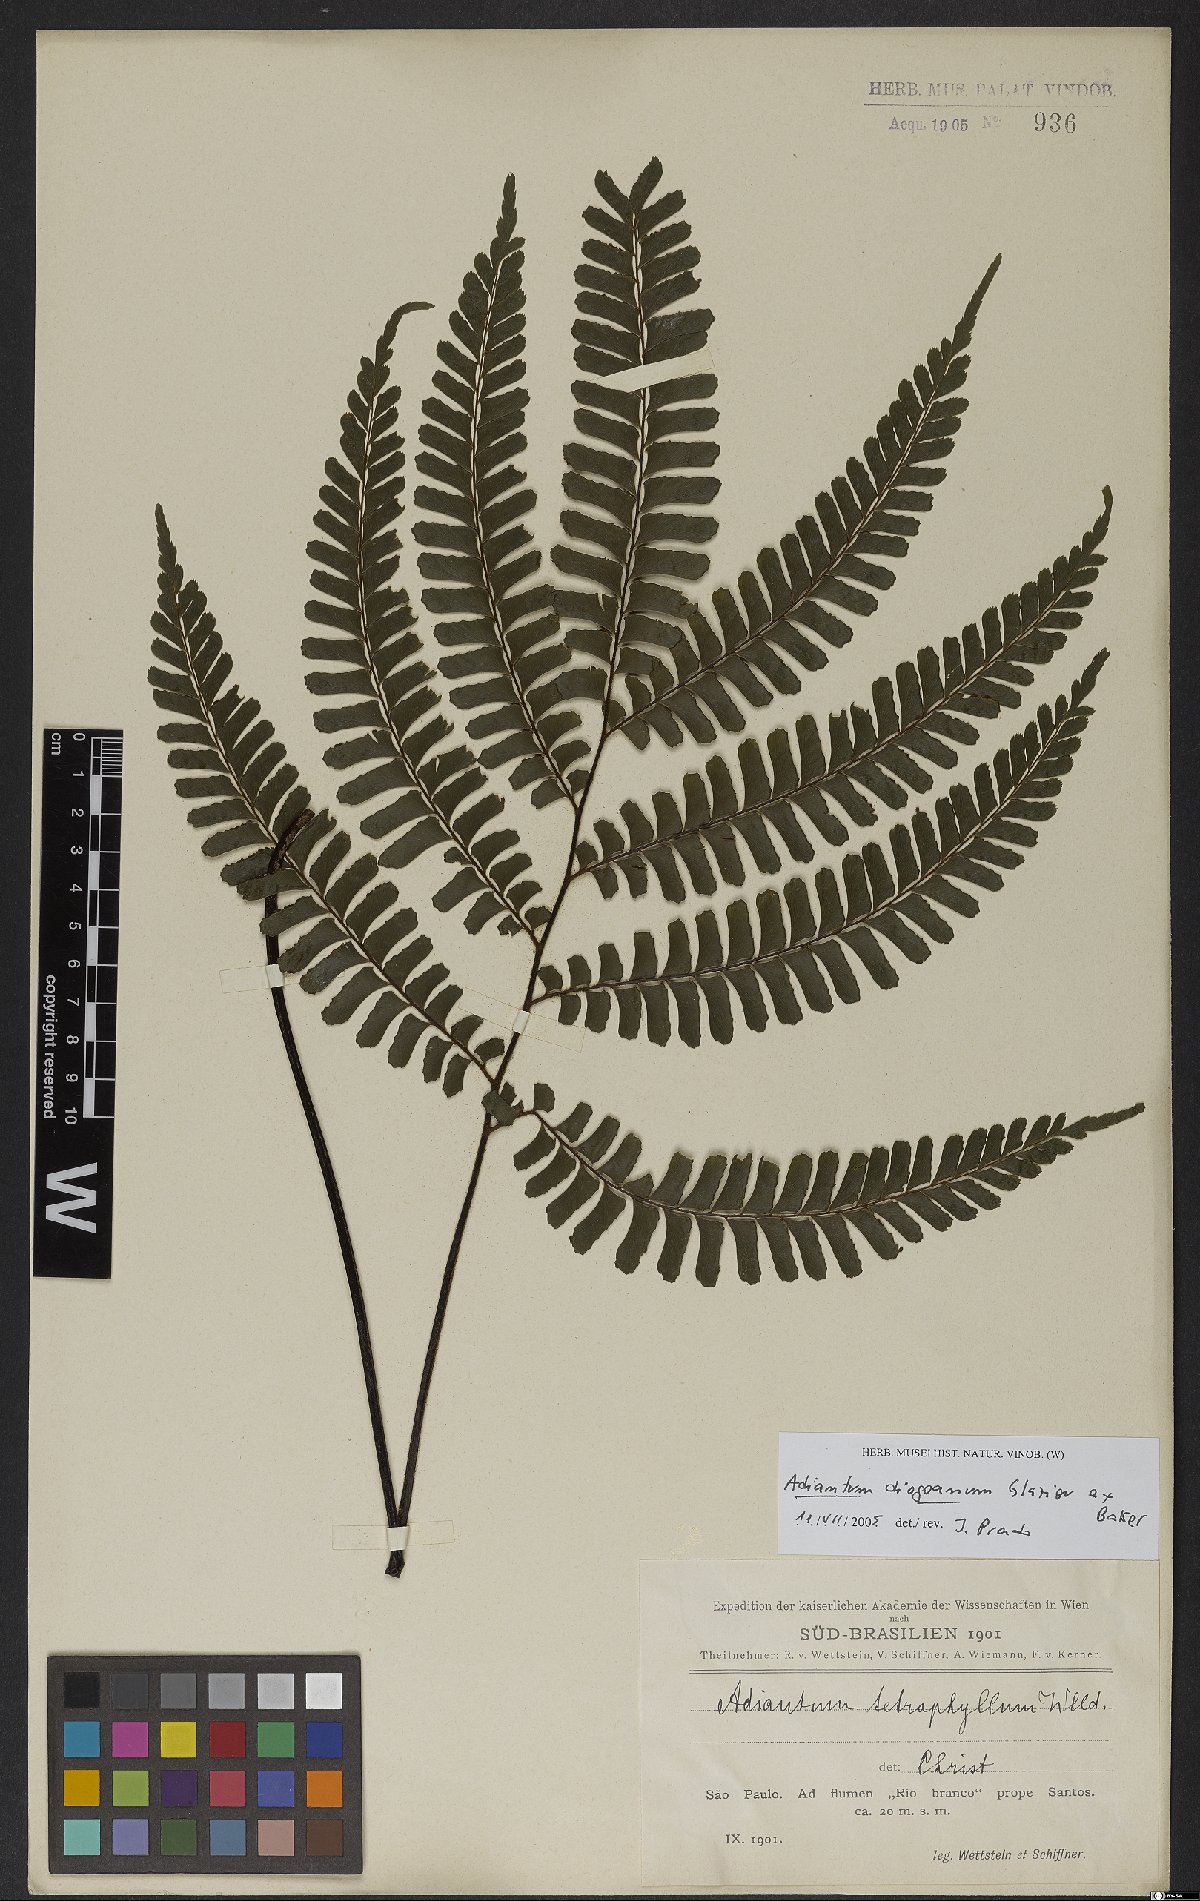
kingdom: Plantae
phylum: Tracheophyta
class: Polypodiopsida
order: Polypodiales
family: Pteridaceae
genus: Adiantum
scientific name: Adiantum diogoanum
